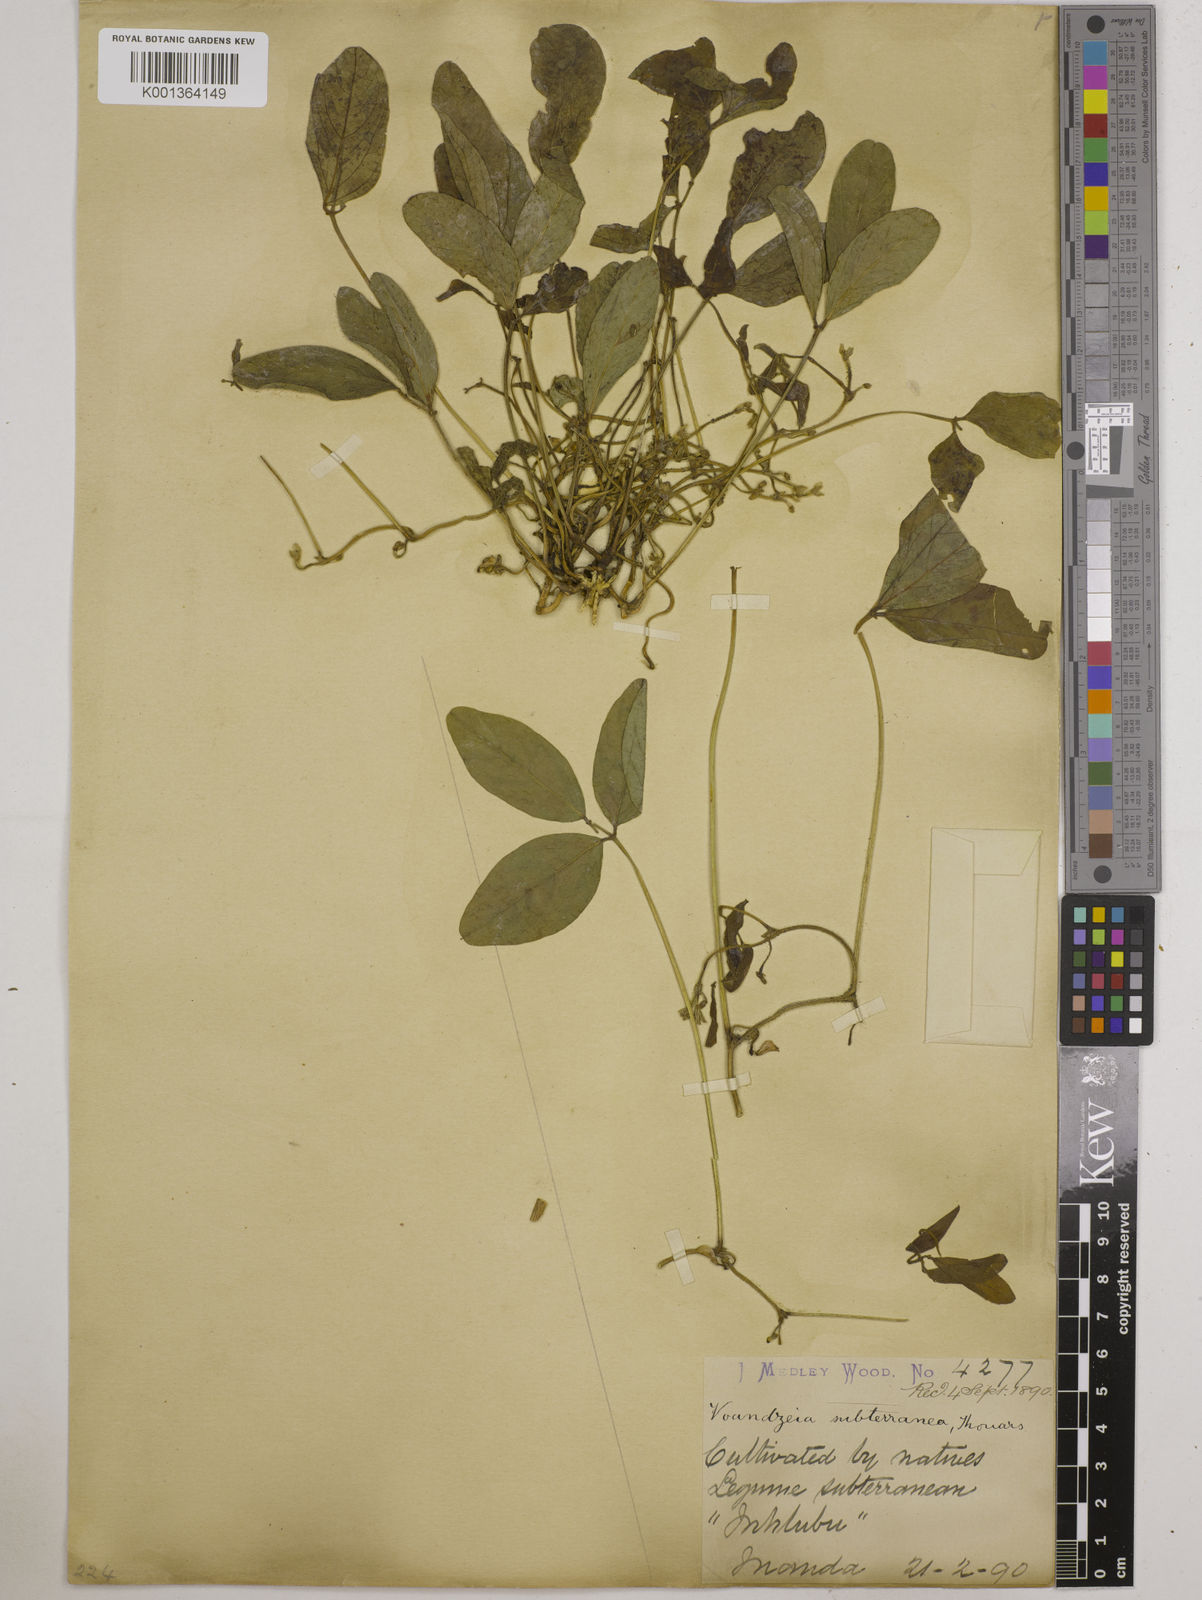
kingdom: Plantae
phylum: Tracheophyta
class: Magnoliopsida
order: Fabales
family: Fabaceae
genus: Vigna
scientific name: Vigna subterranea
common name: Bambara groundnut
